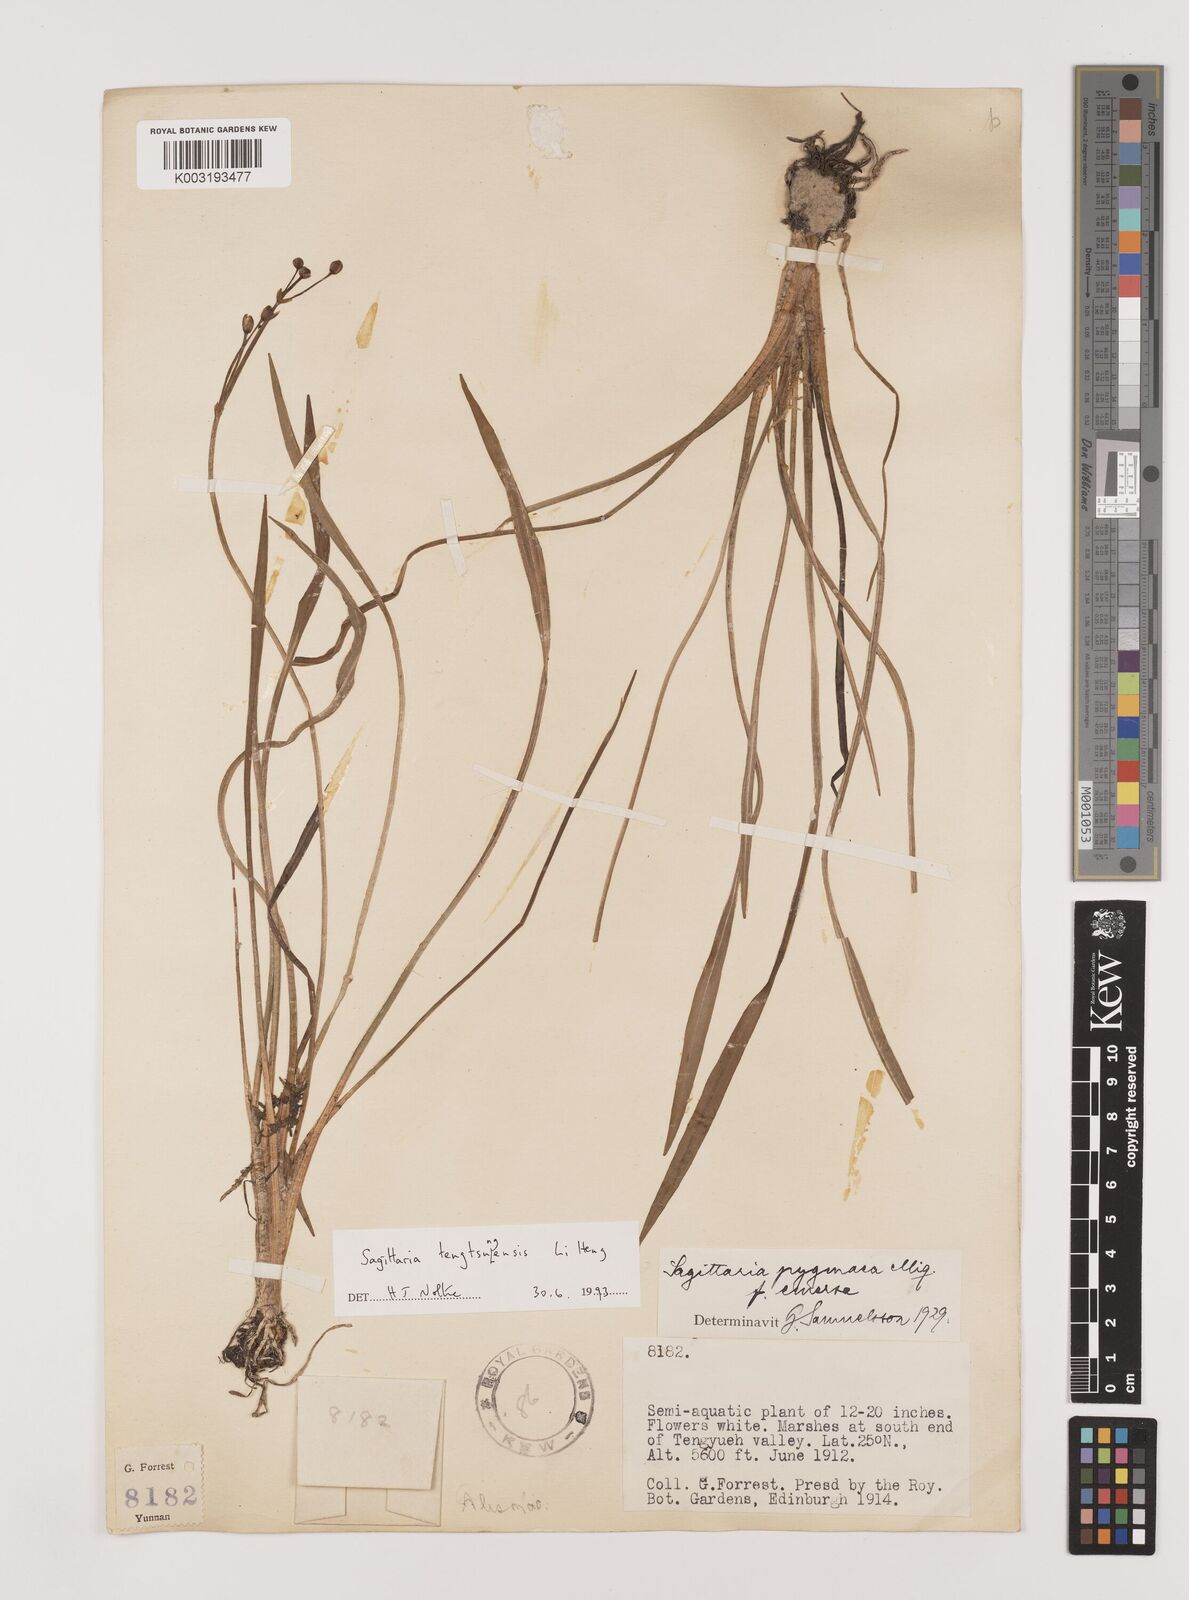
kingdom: Plantae
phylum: Tracheophyta
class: Liliopsida
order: Alismatales
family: Alismataceae
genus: Sagittaria
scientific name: Sagittaria tengtsungensis
